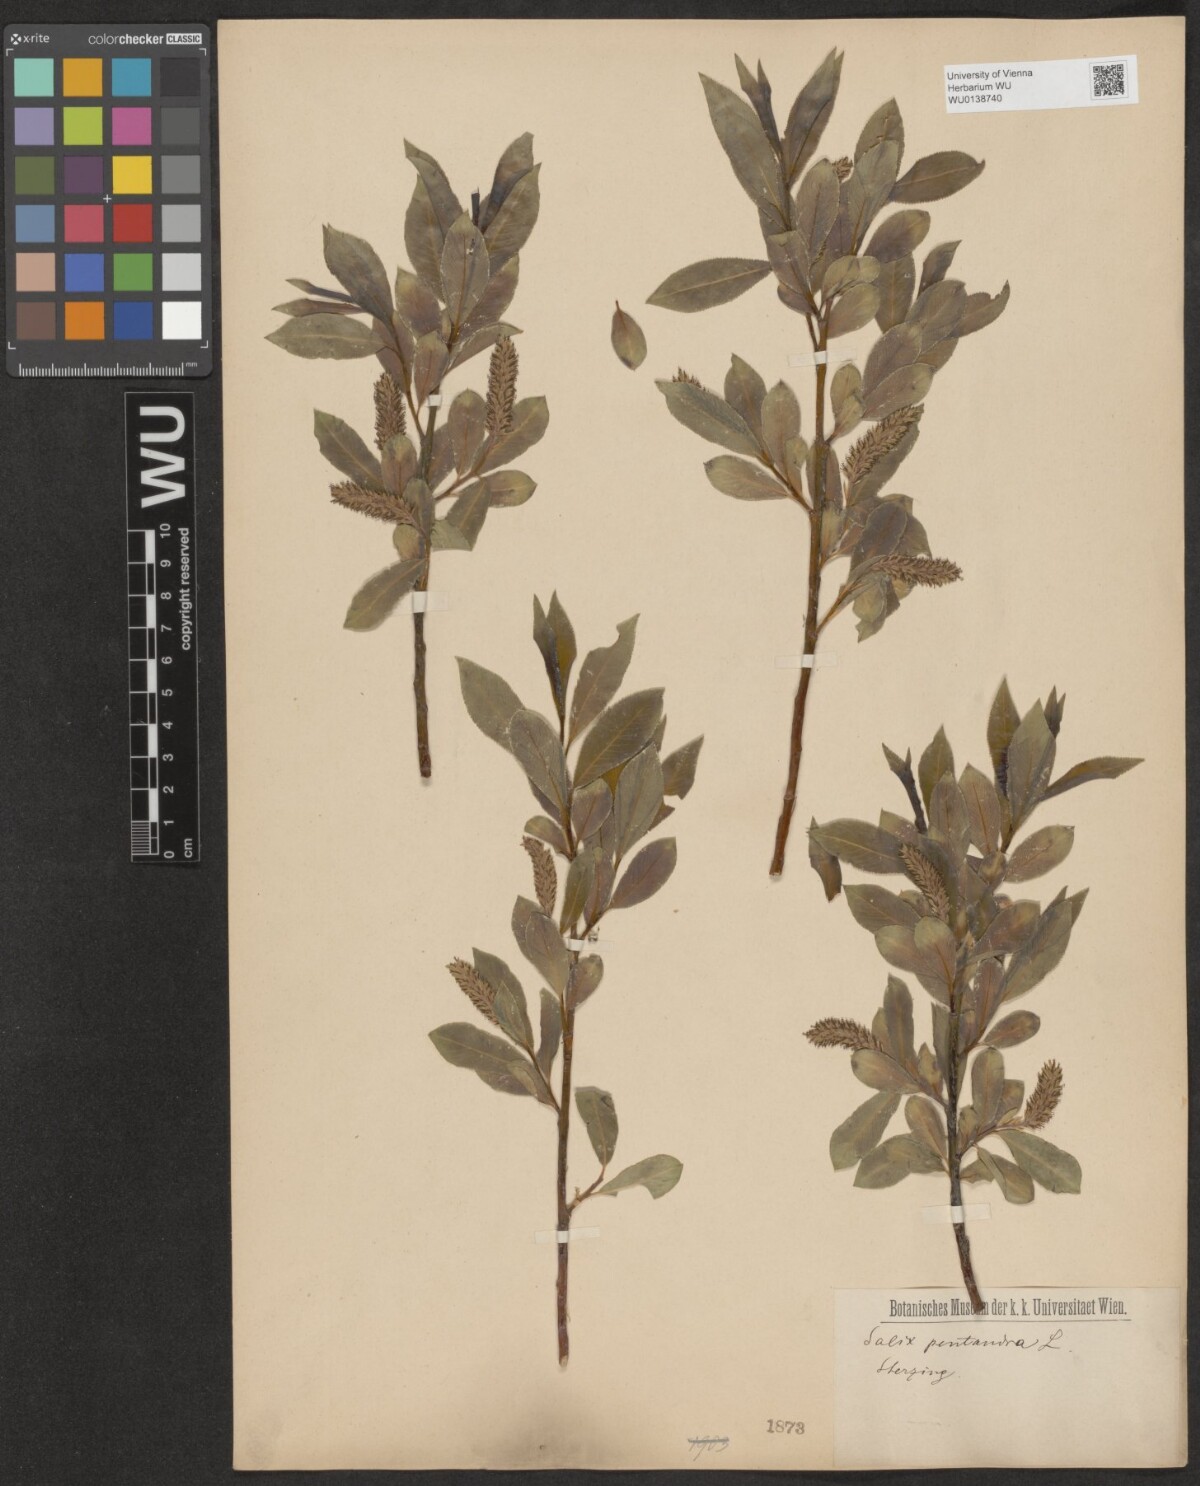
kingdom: Plantae
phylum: Tracheophyta
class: Magnoliopsida
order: Malpighiales
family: Salicaceae
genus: Salix
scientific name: Salix pentandra
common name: Bay willow
